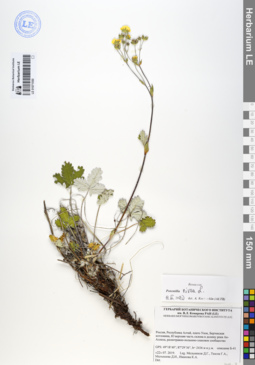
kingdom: Plantae
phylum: Tracheophyta
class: Magnoliopsida
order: Rosales
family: Rosaceae
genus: Potentilla
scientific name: Potentilla nivea
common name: Snow cinquefoil
